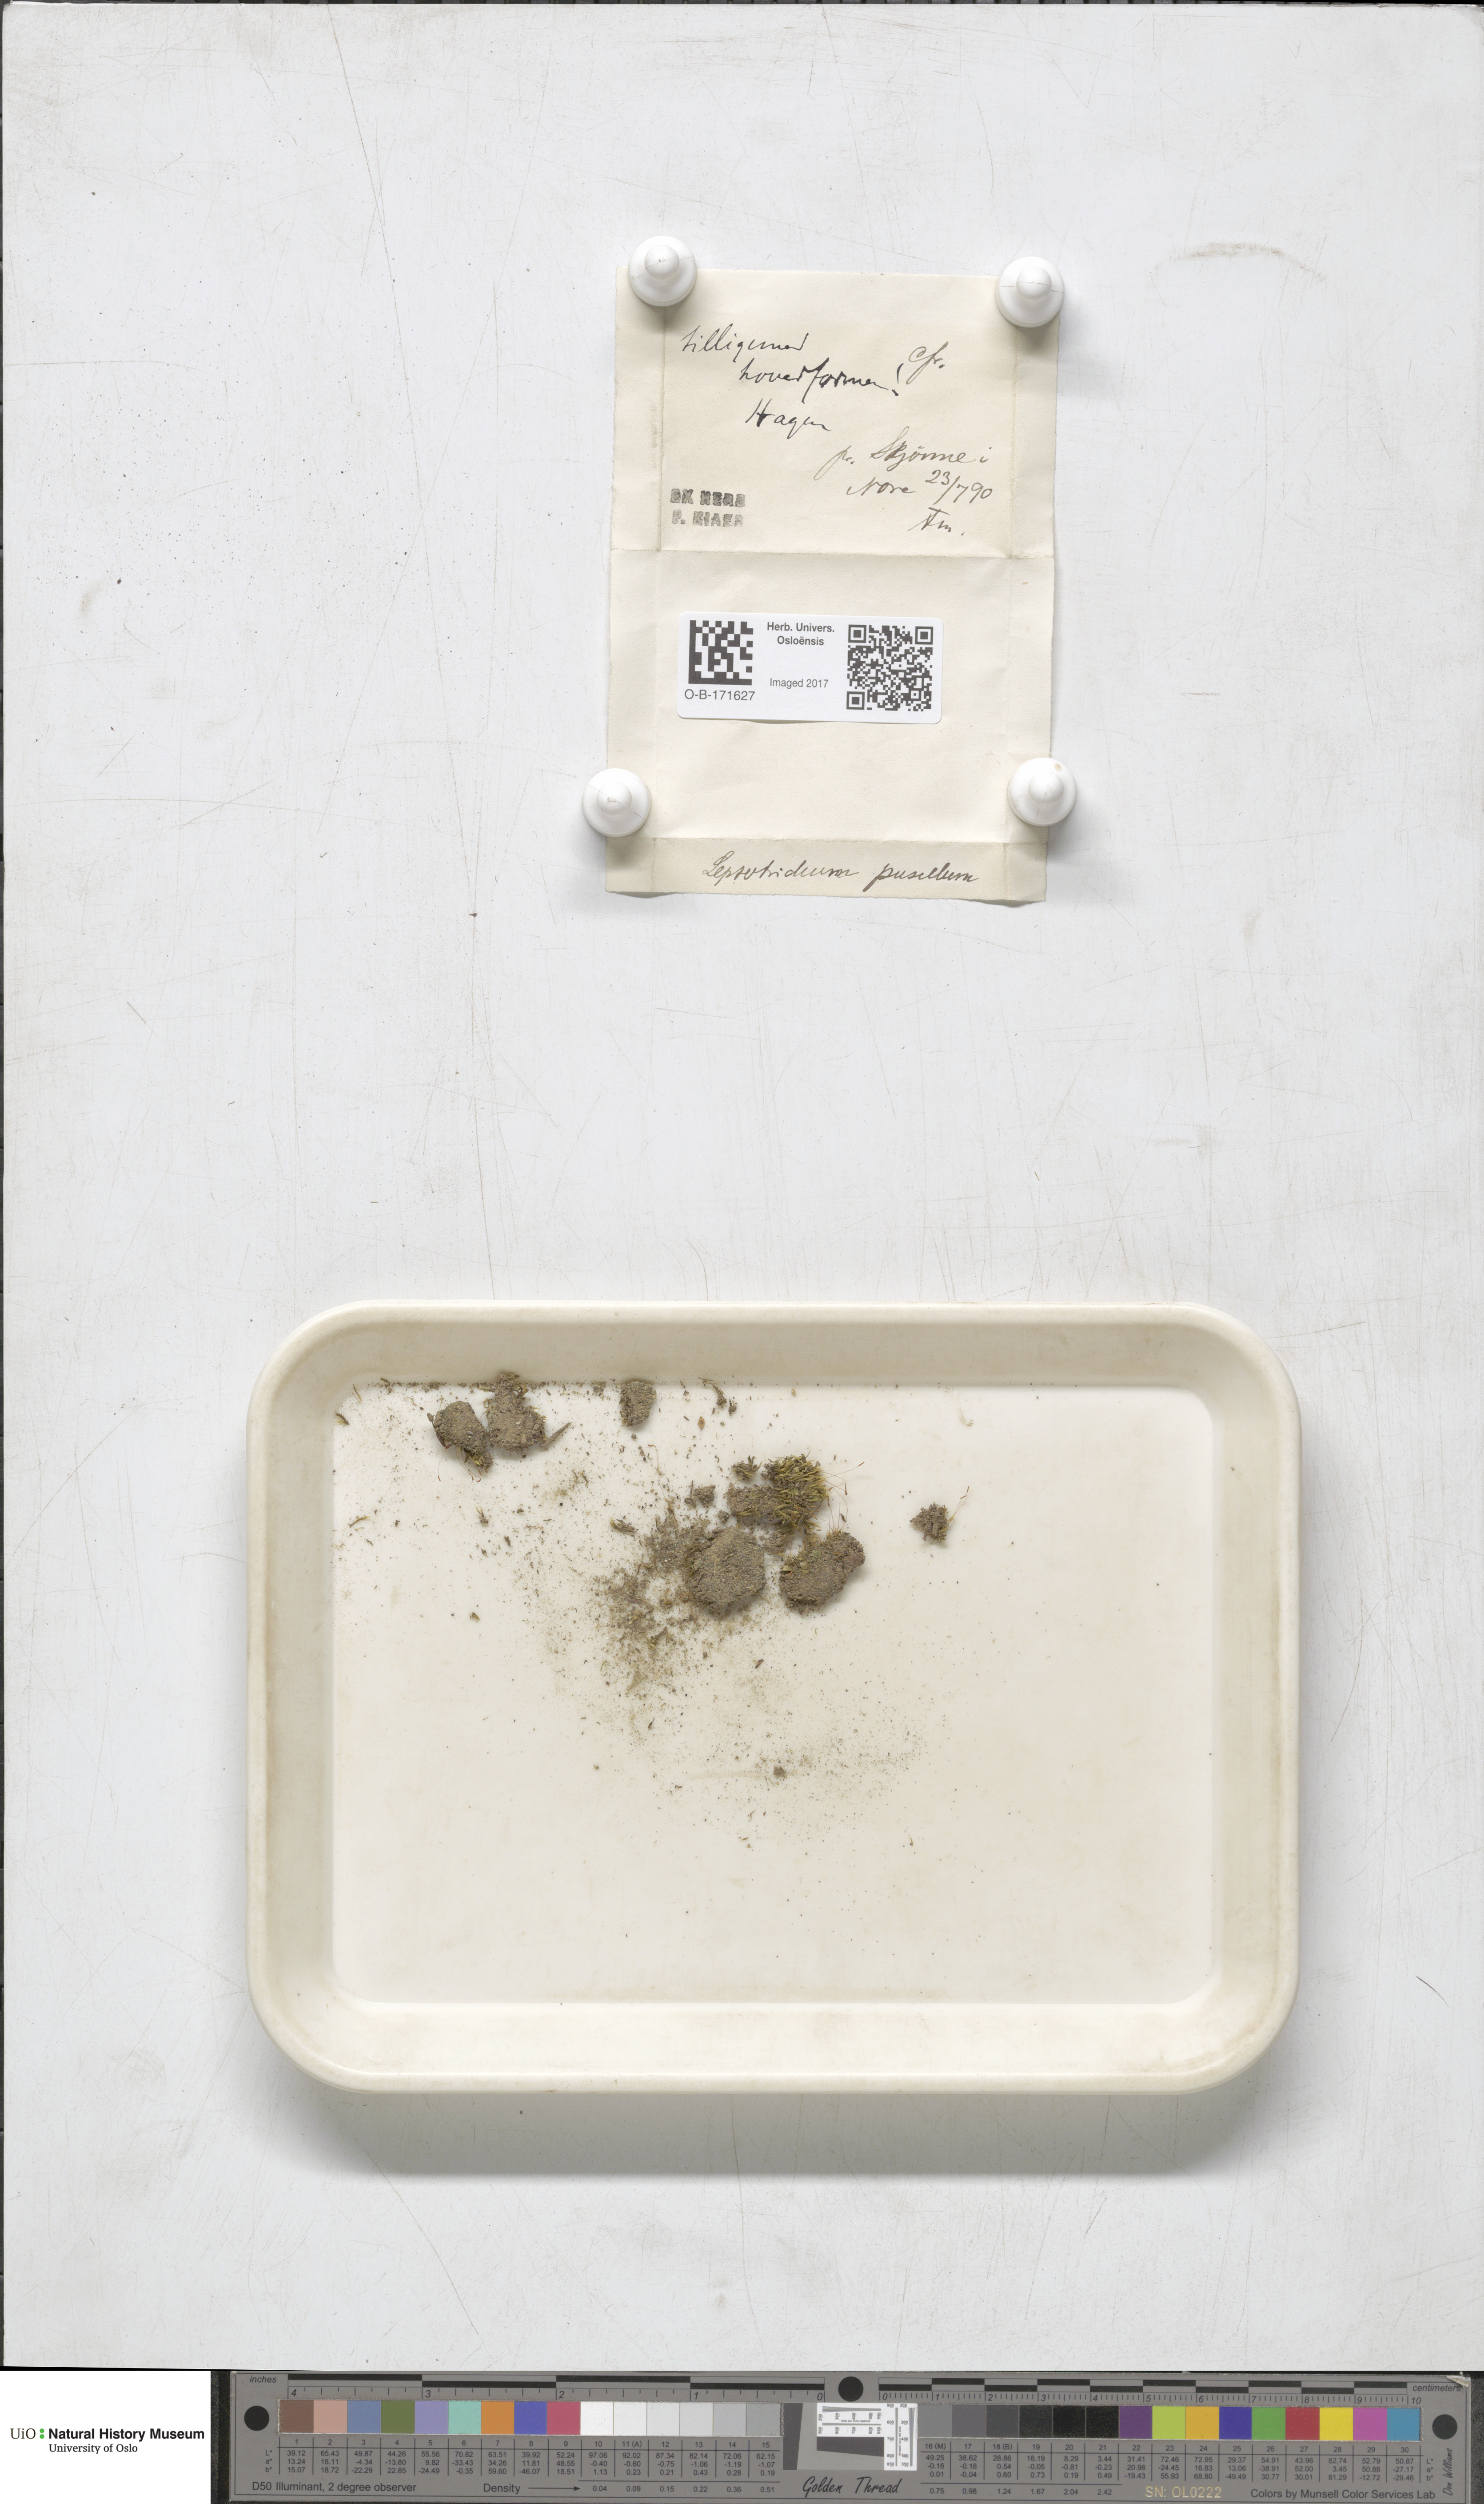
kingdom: Plantae
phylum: Bryophyta
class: Bryopsida
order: Dicranales
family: Ditrichaceae
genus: Ditrichum
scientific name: Ditrichum pusillum
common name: Brown cow-hair moss
